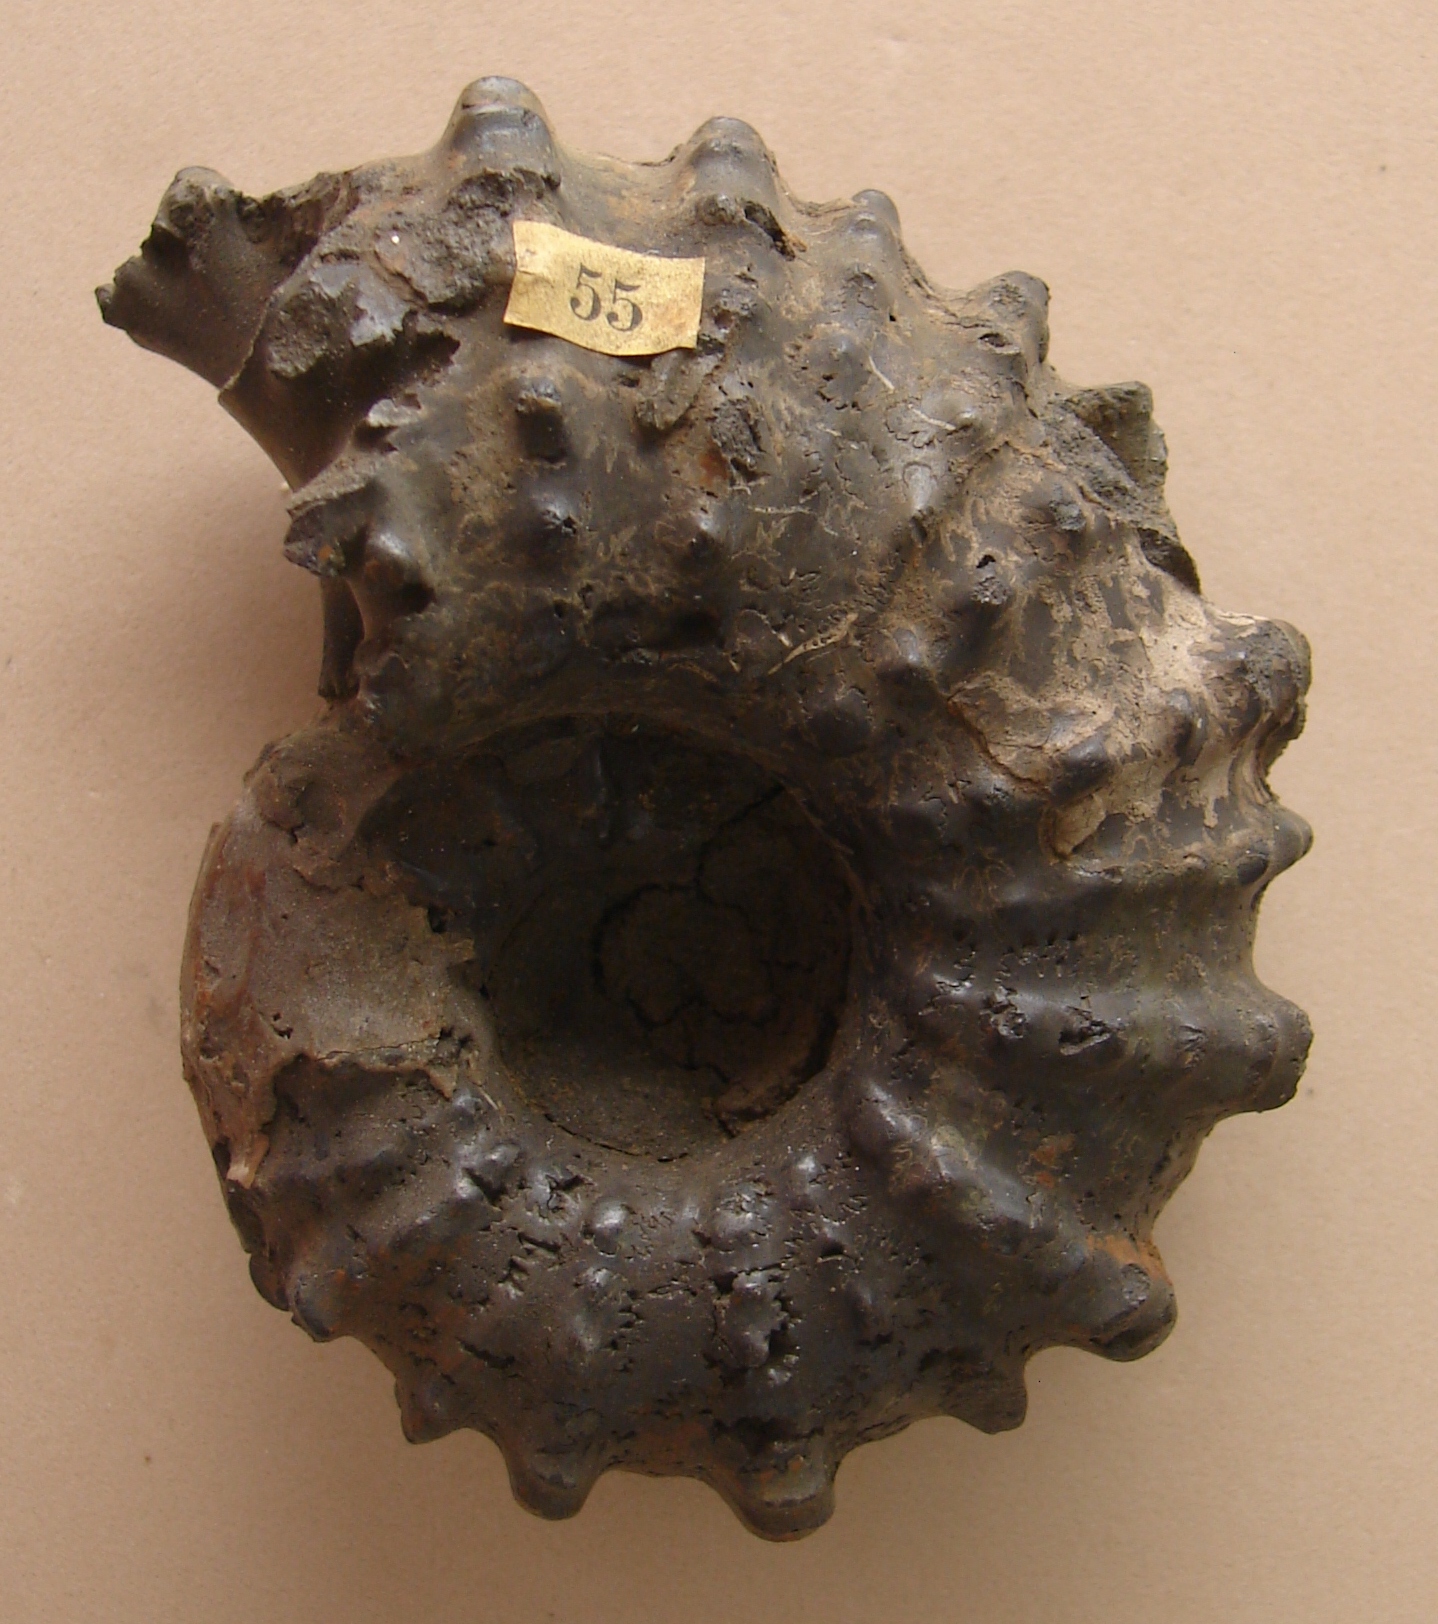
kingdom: Animalia
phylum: Mollusca
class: Cephalopoda
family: Douvilleiceratidae
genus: Douvilleiceras
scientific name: Douvilleiceras mammillatum
